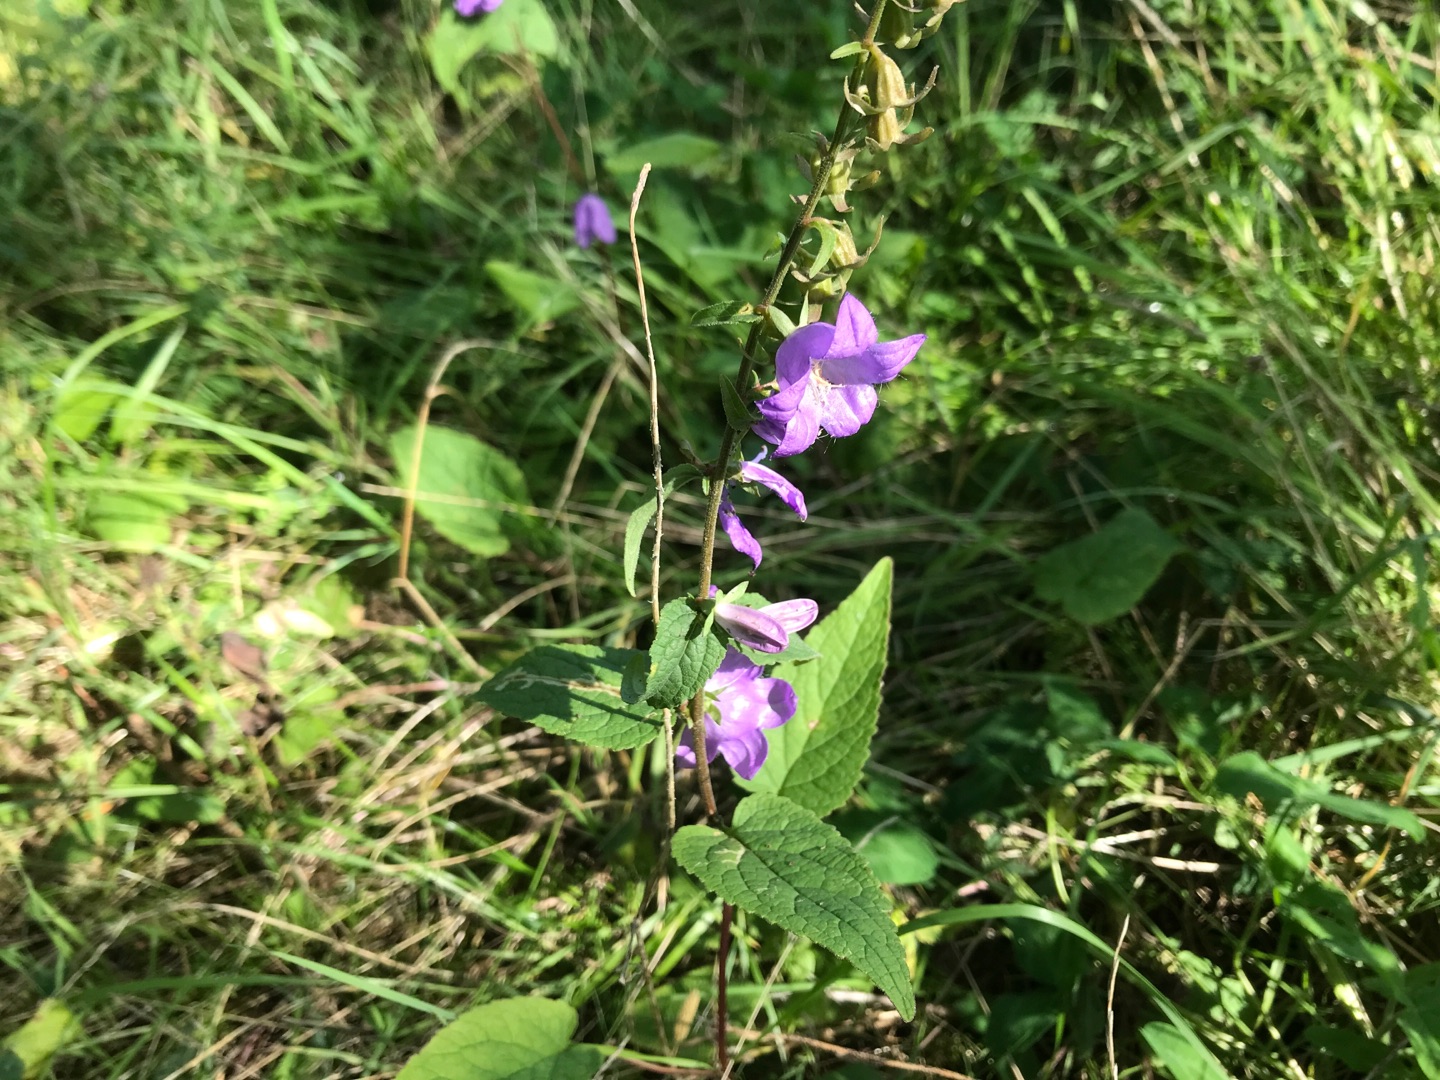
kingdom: Plantae
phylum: Tracheophyta
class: Magnoliopsida
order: Asterales
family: Campanulaceae
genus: Campanula
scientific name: Campanula rapunculoides
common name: Ensidig klokke
